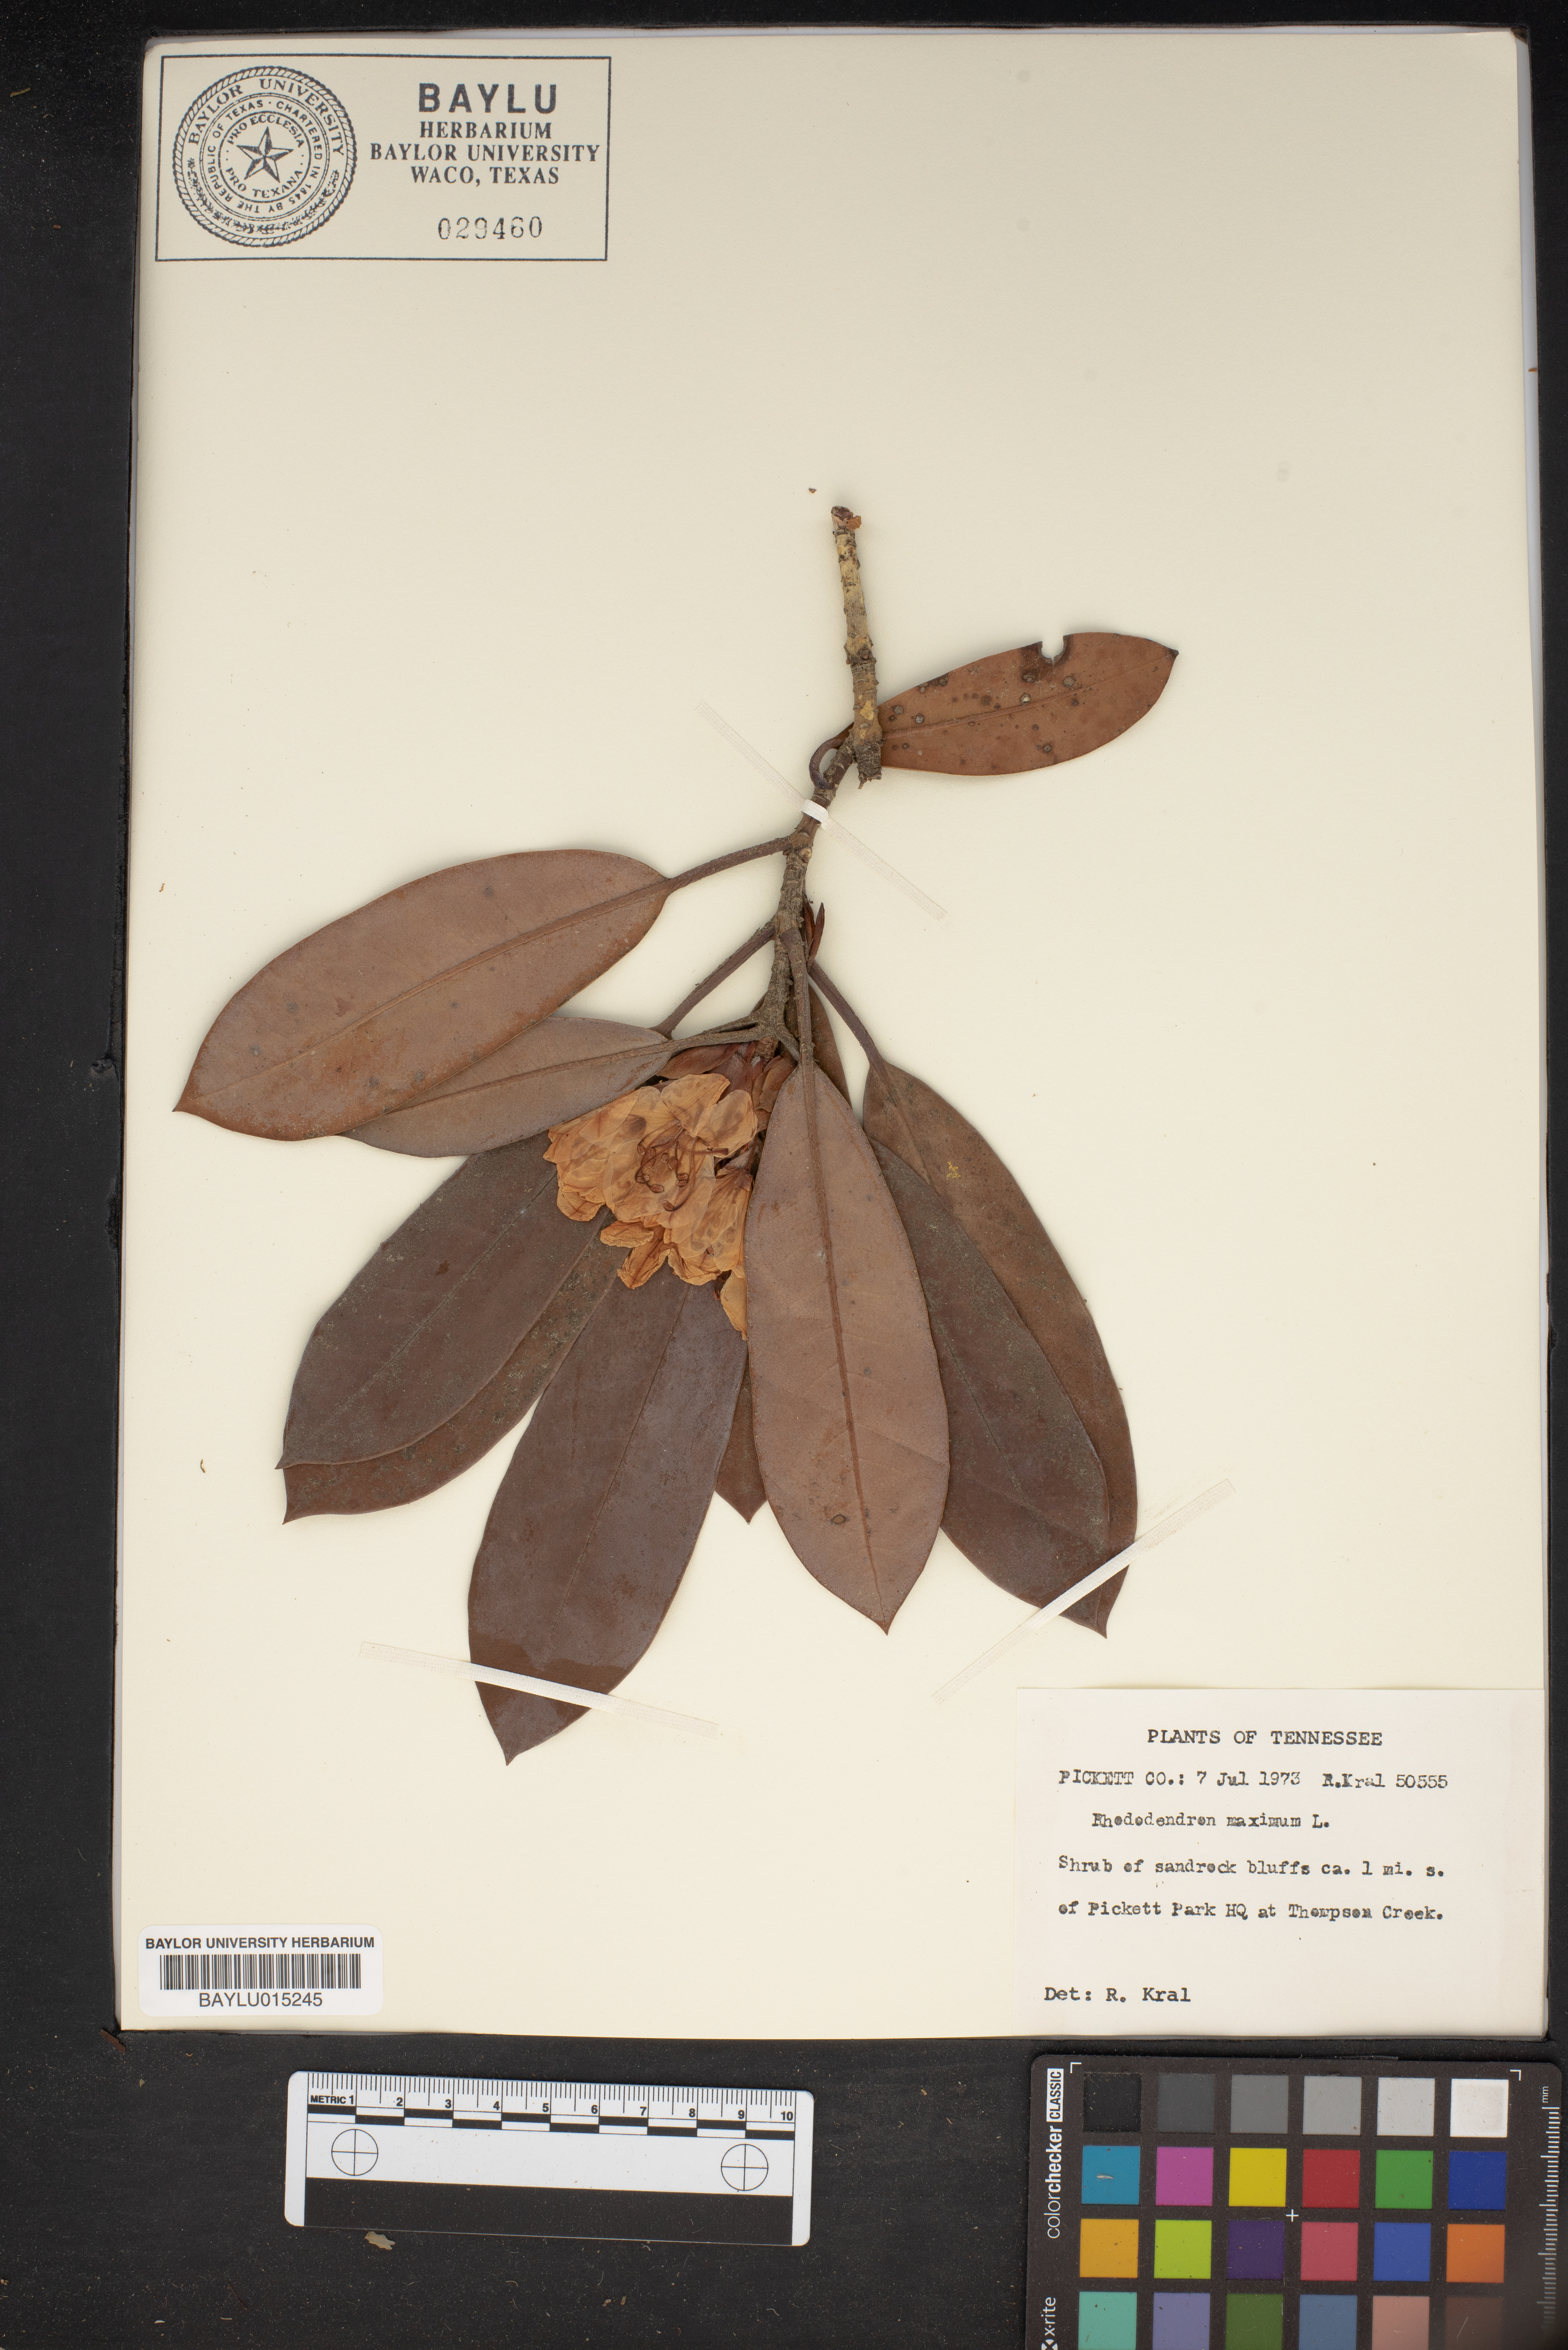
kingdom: Plantae
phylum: Tracheophyta
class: Magnoliopsida
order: Ericales
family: Ericaceae
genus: Rhododendron
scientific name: Rhododendron maximum
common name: Great rhododendron
